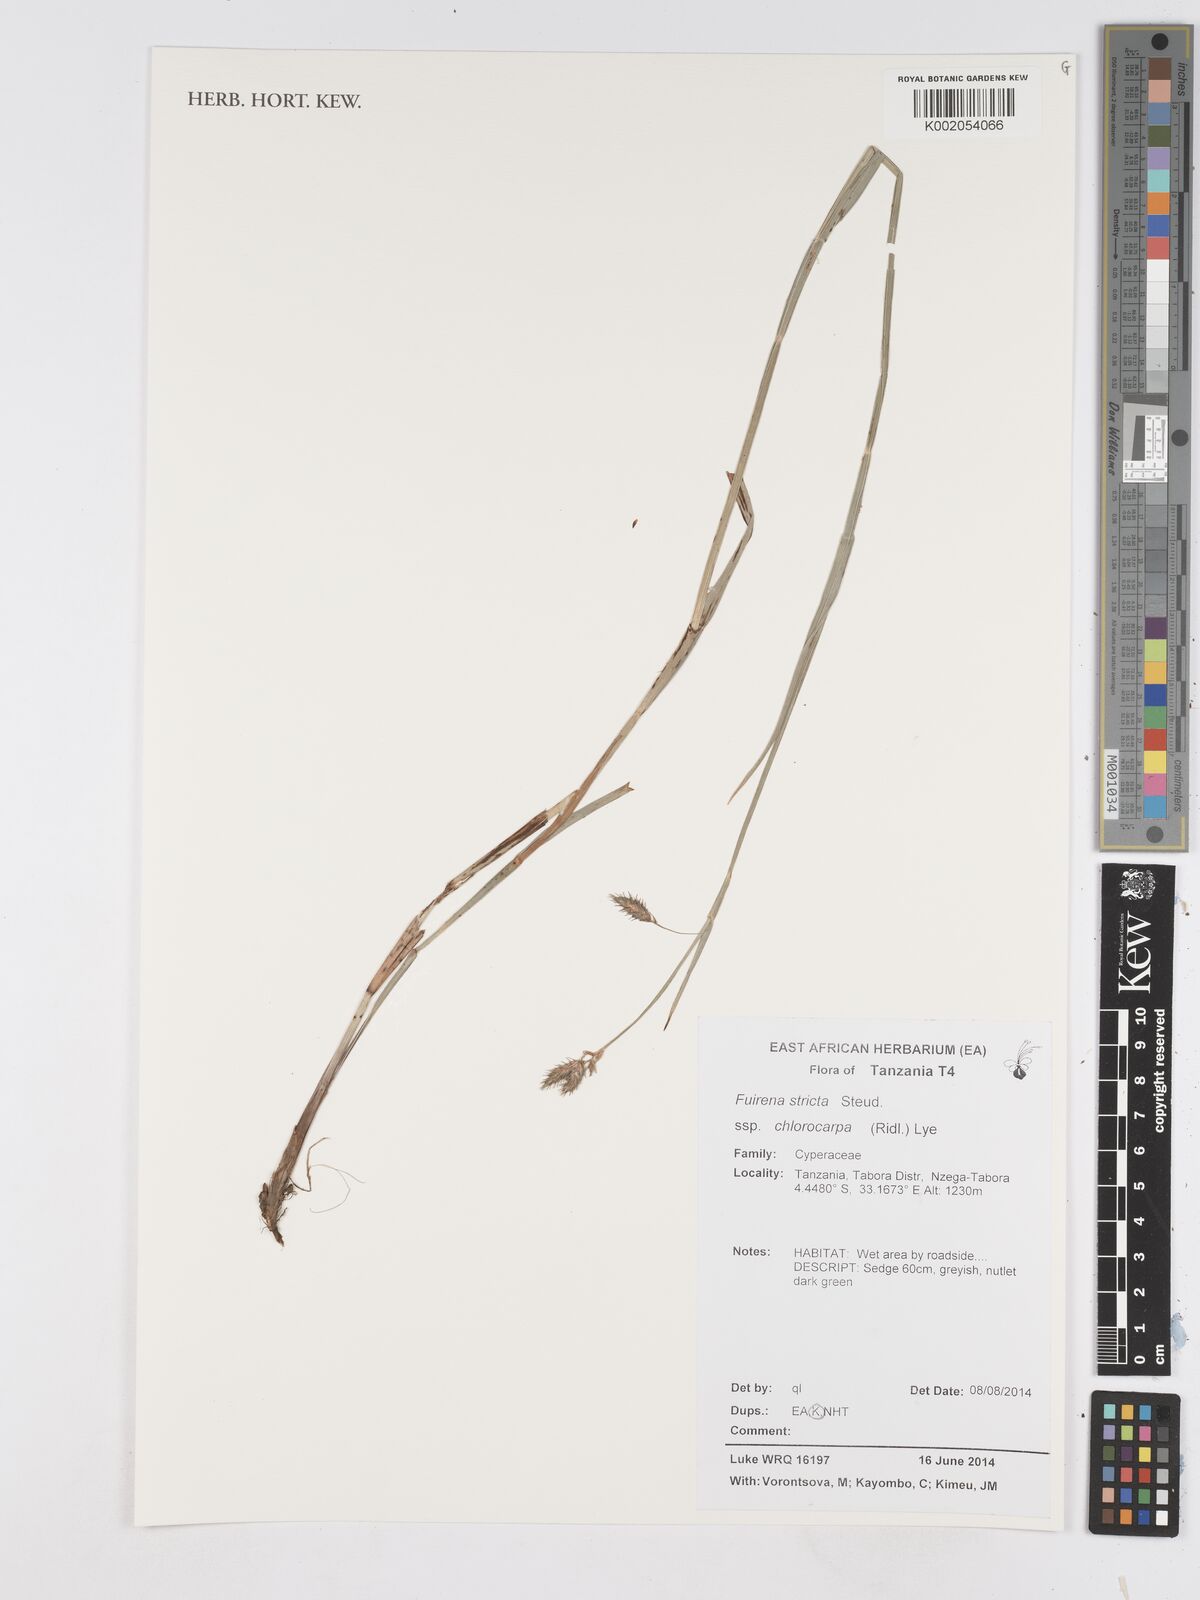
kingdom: Plantae
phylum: Tracheophyta
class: Liliopsida
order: Poales
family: Cyperaceae
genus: Fuirena
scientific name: Fuirena stricta
